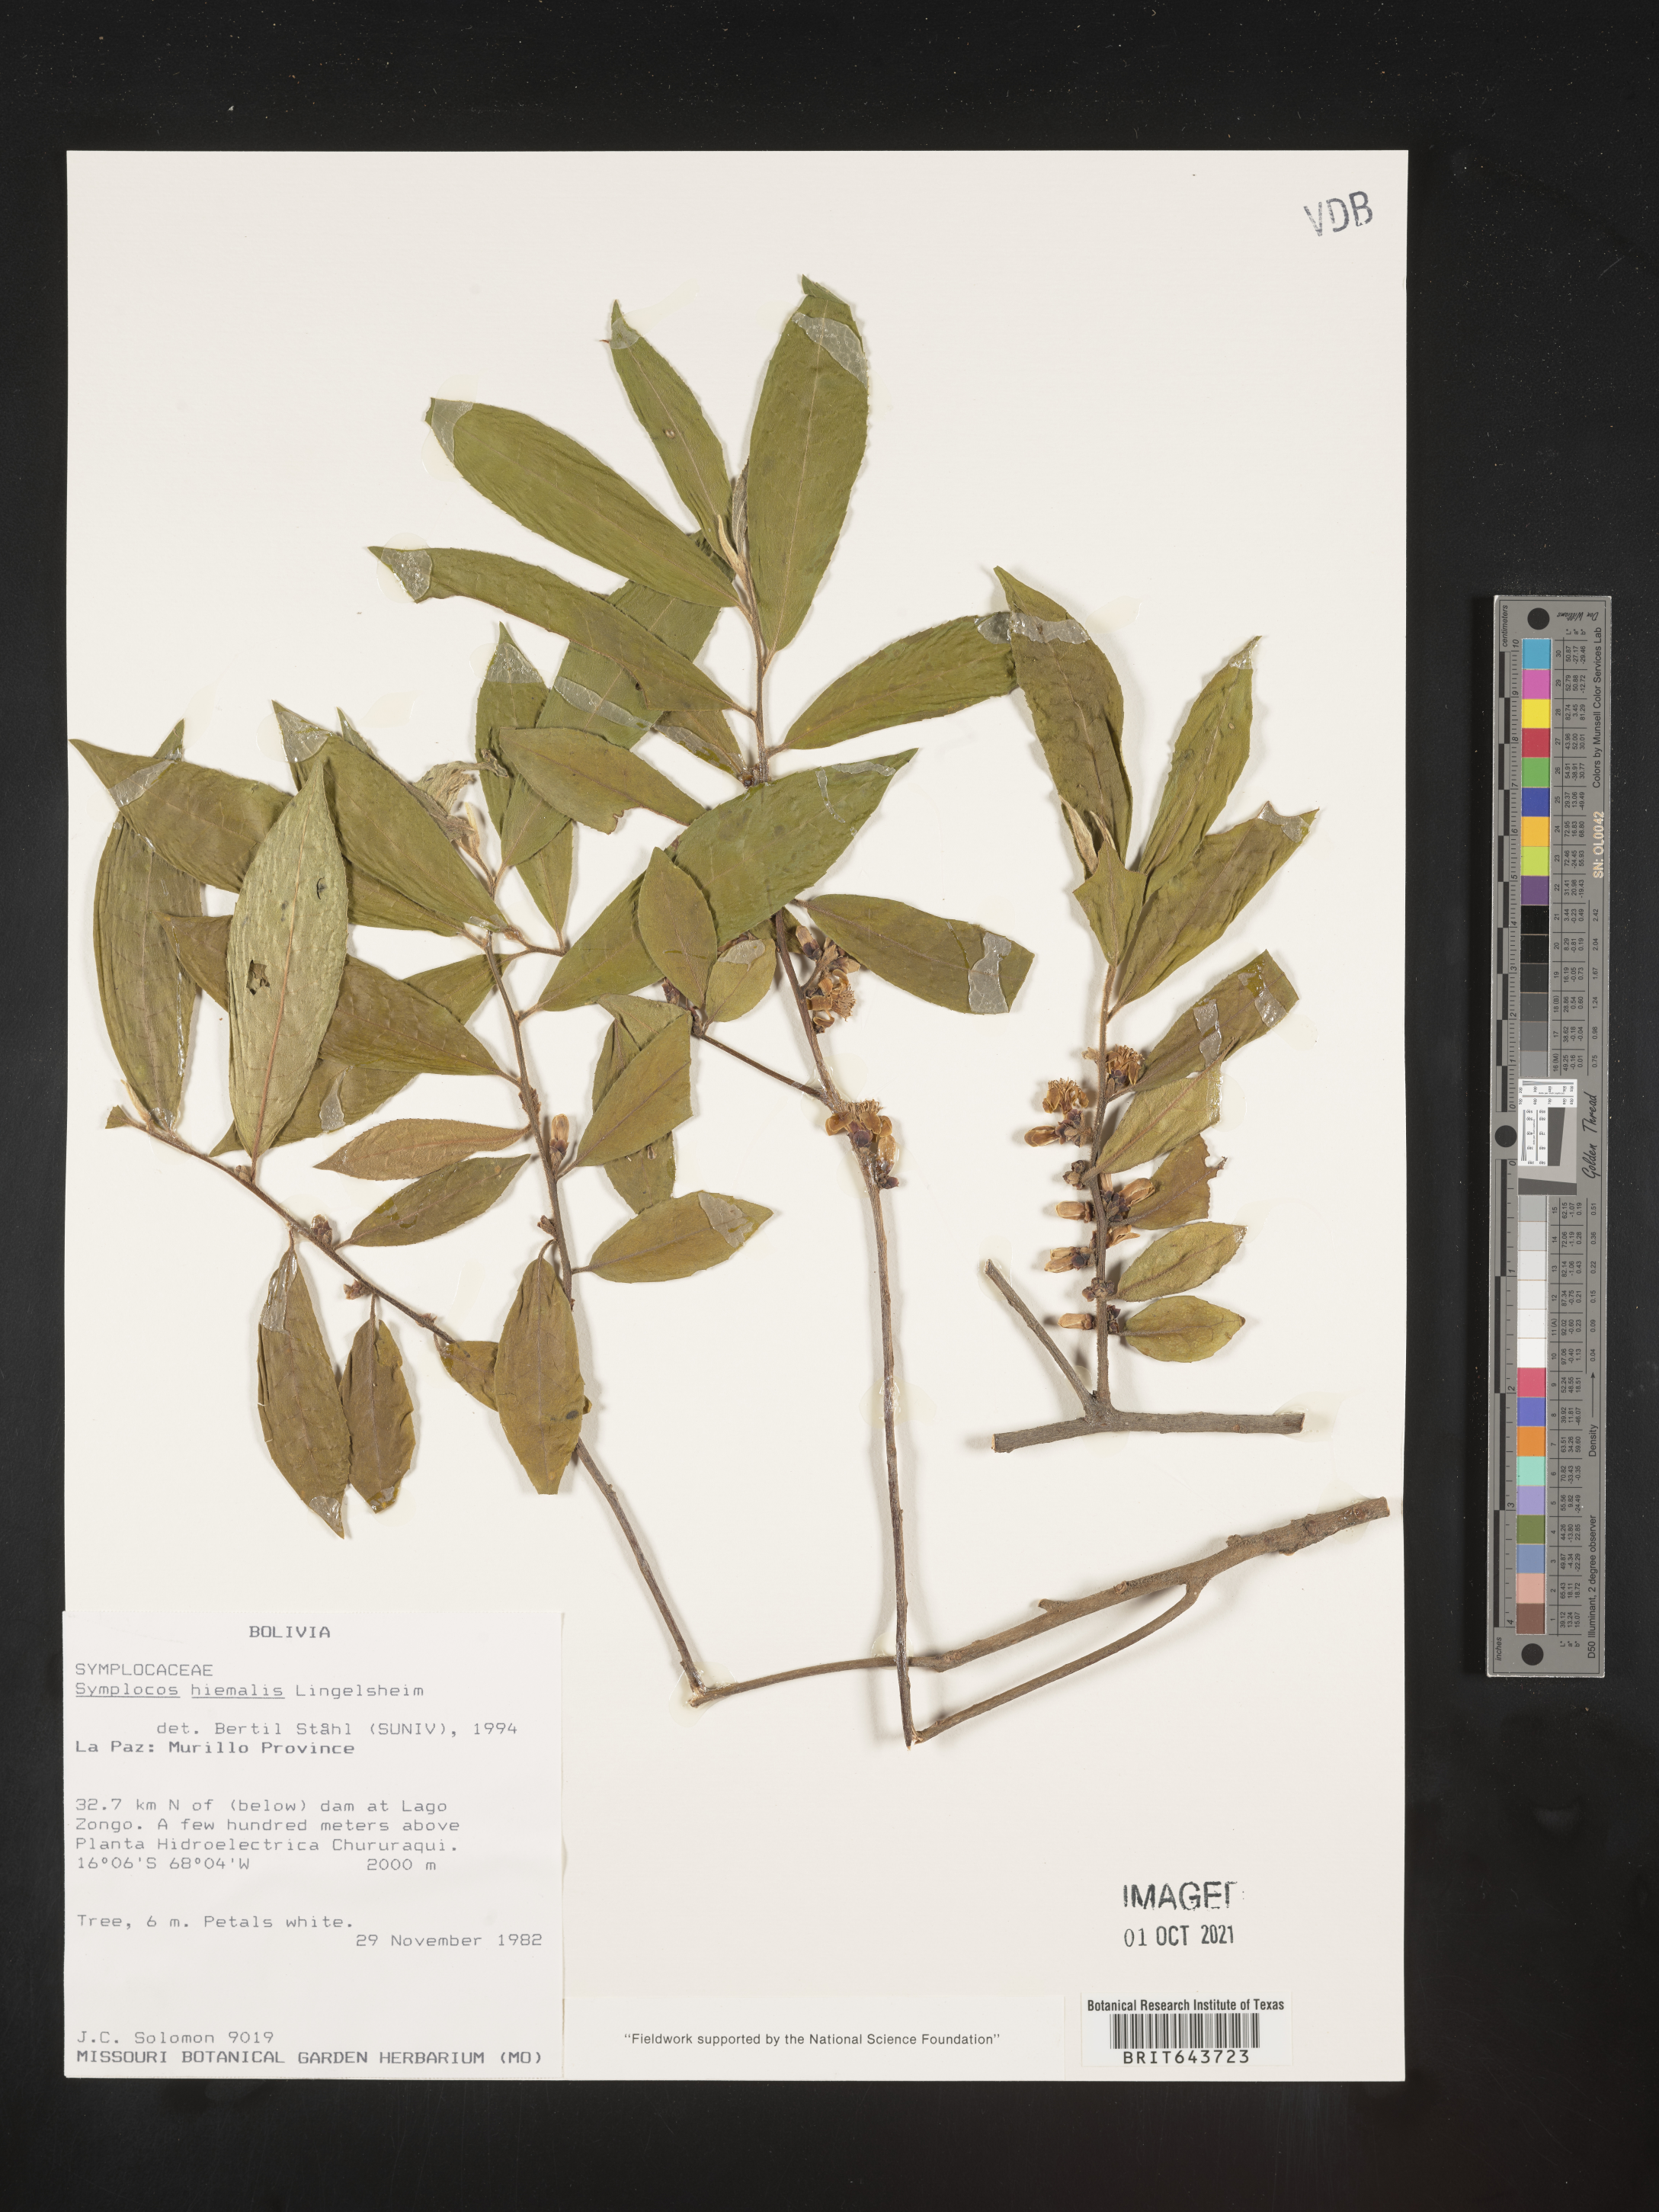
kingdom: Plantae
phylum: Tracheophyta
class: Magnoliopsida
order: Ericales
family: Symplocaceae
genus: Symplocos
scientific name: Symplocos
